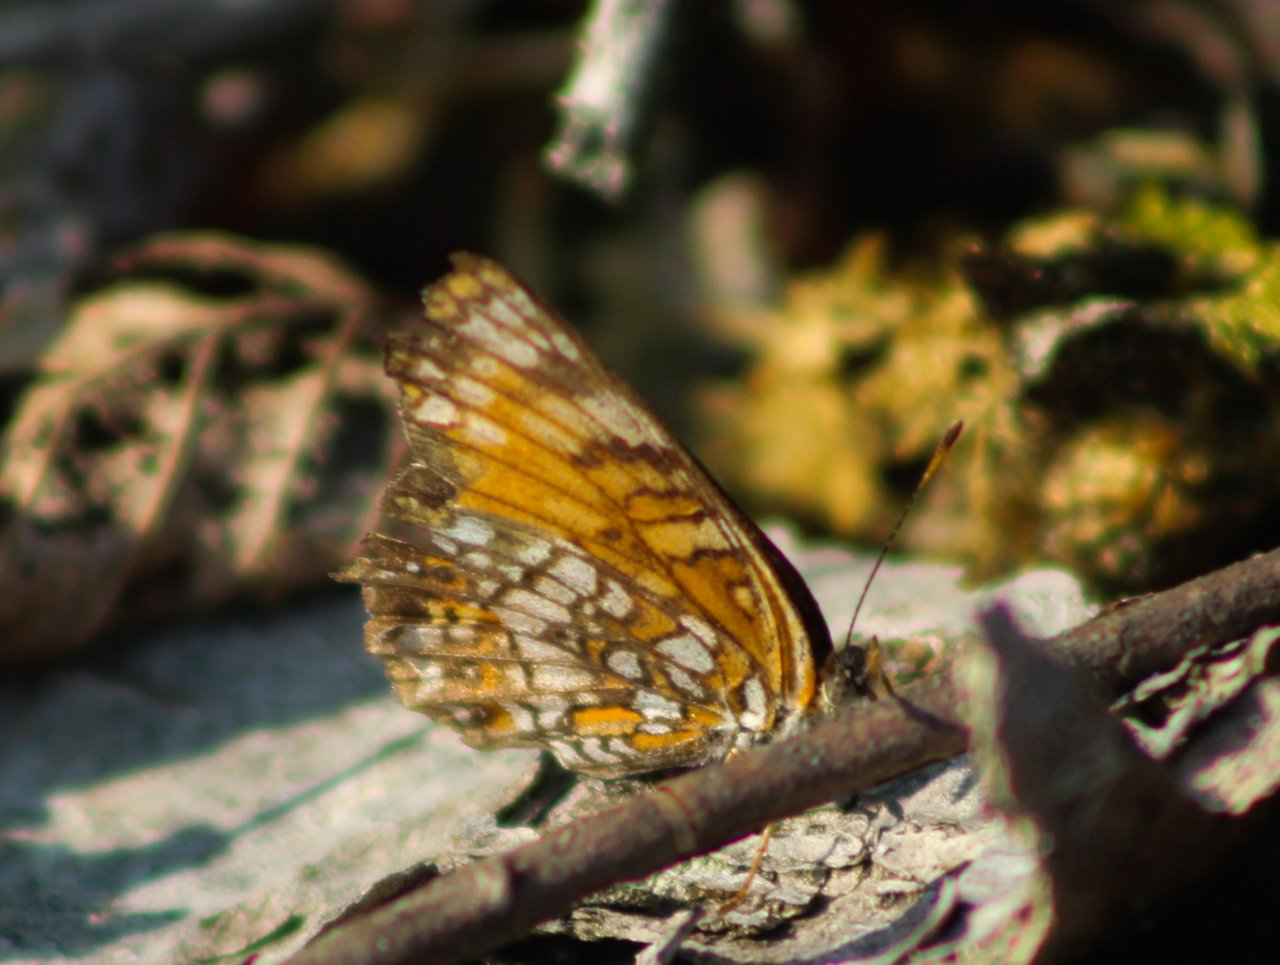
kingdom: Animalia
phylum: Arthropoda
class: Insecta
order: Lepidoptera
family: Nymphalidae
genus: Chlosyne
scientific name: Chlosyne harrisii
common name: Harris's Checkerspot
